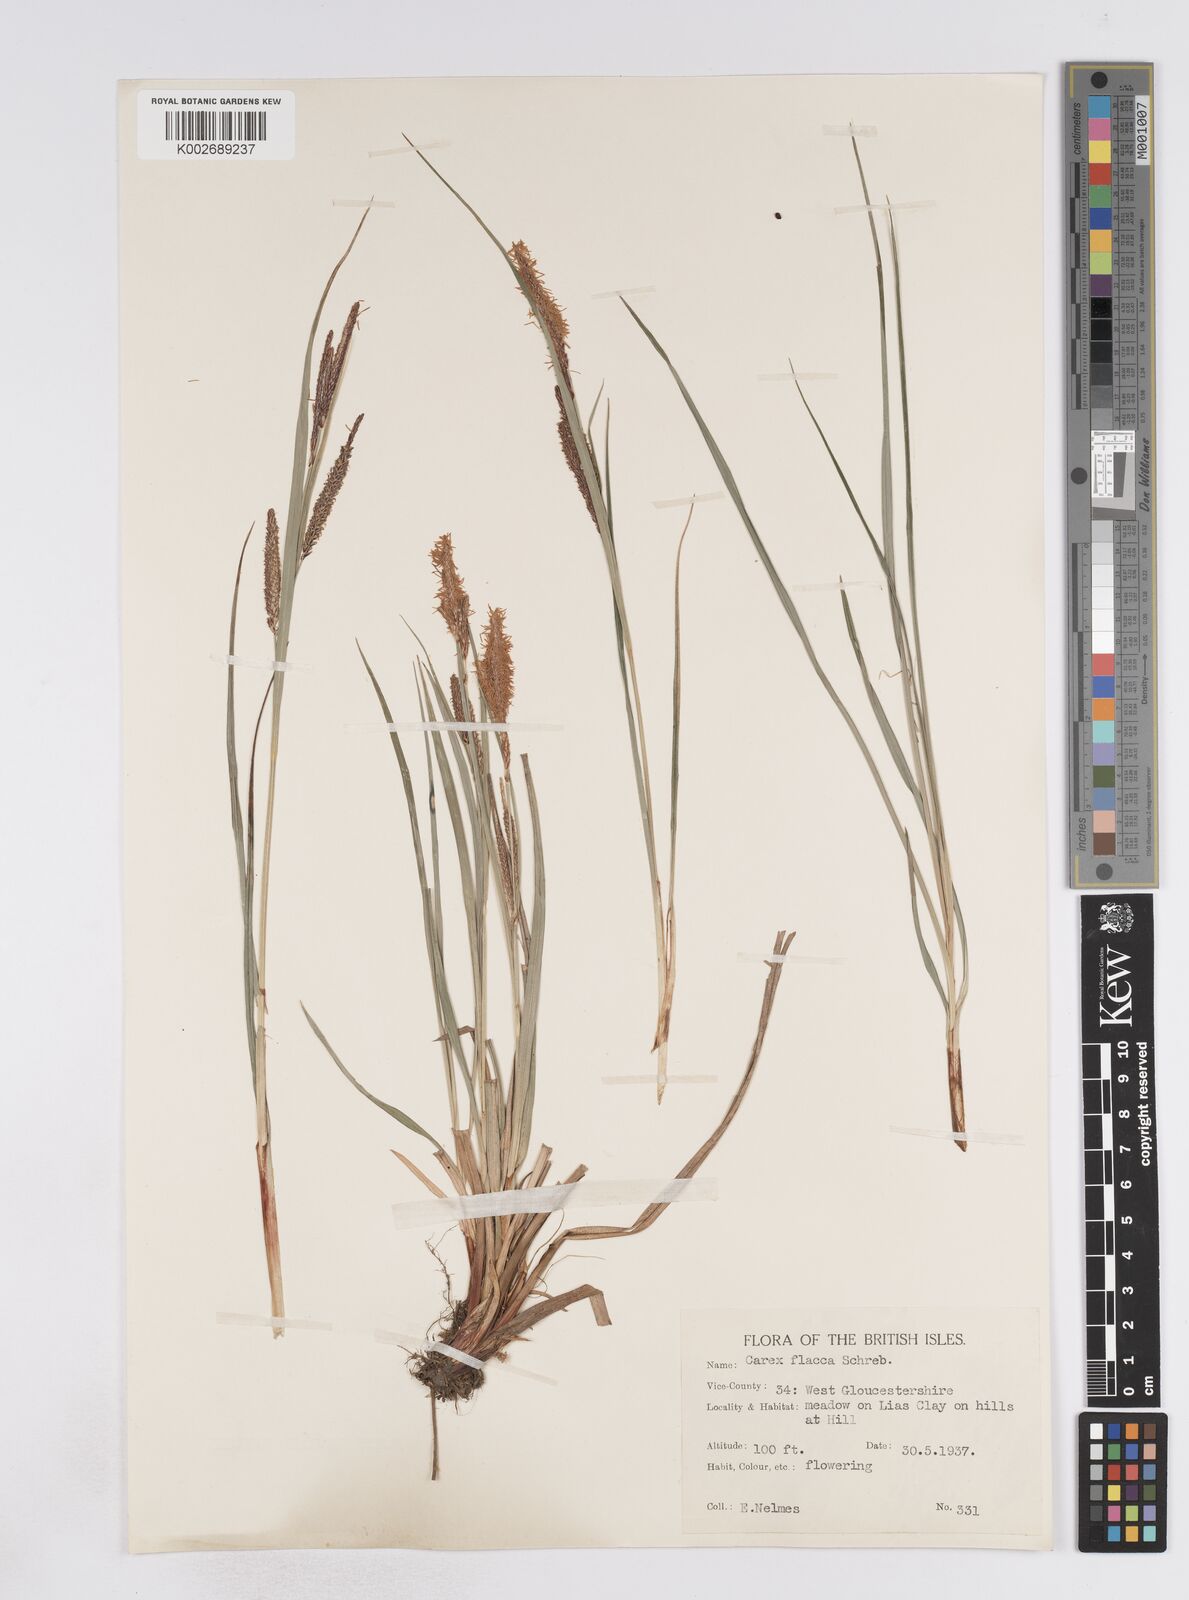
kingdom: Plantae
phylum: Tracheophyta
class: Liliopsida
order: Poales
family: Cyperaceae
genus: Carex
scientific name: Carex flacca
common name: Glaucous sedge
